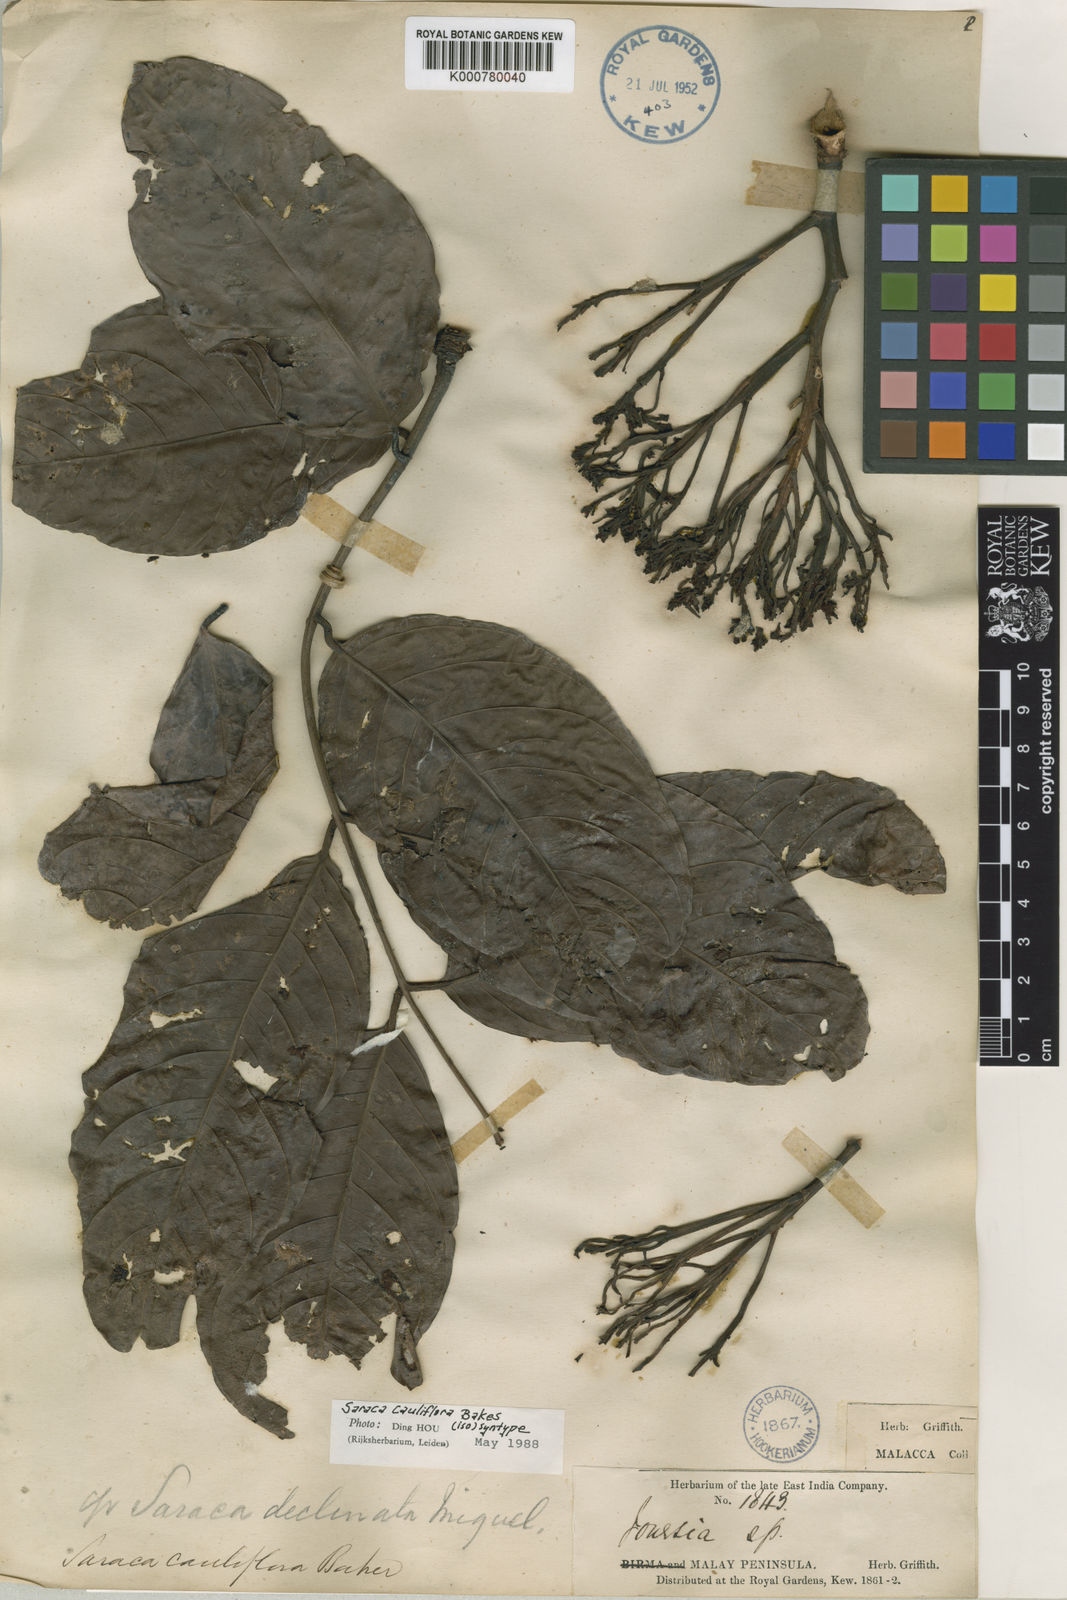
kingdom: Plantae
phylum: Tracheophyta
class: Magnoliopsida
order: Fabales
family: Fabaceae
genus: Saraca
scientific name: Saraca declinata
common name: Red saraca
